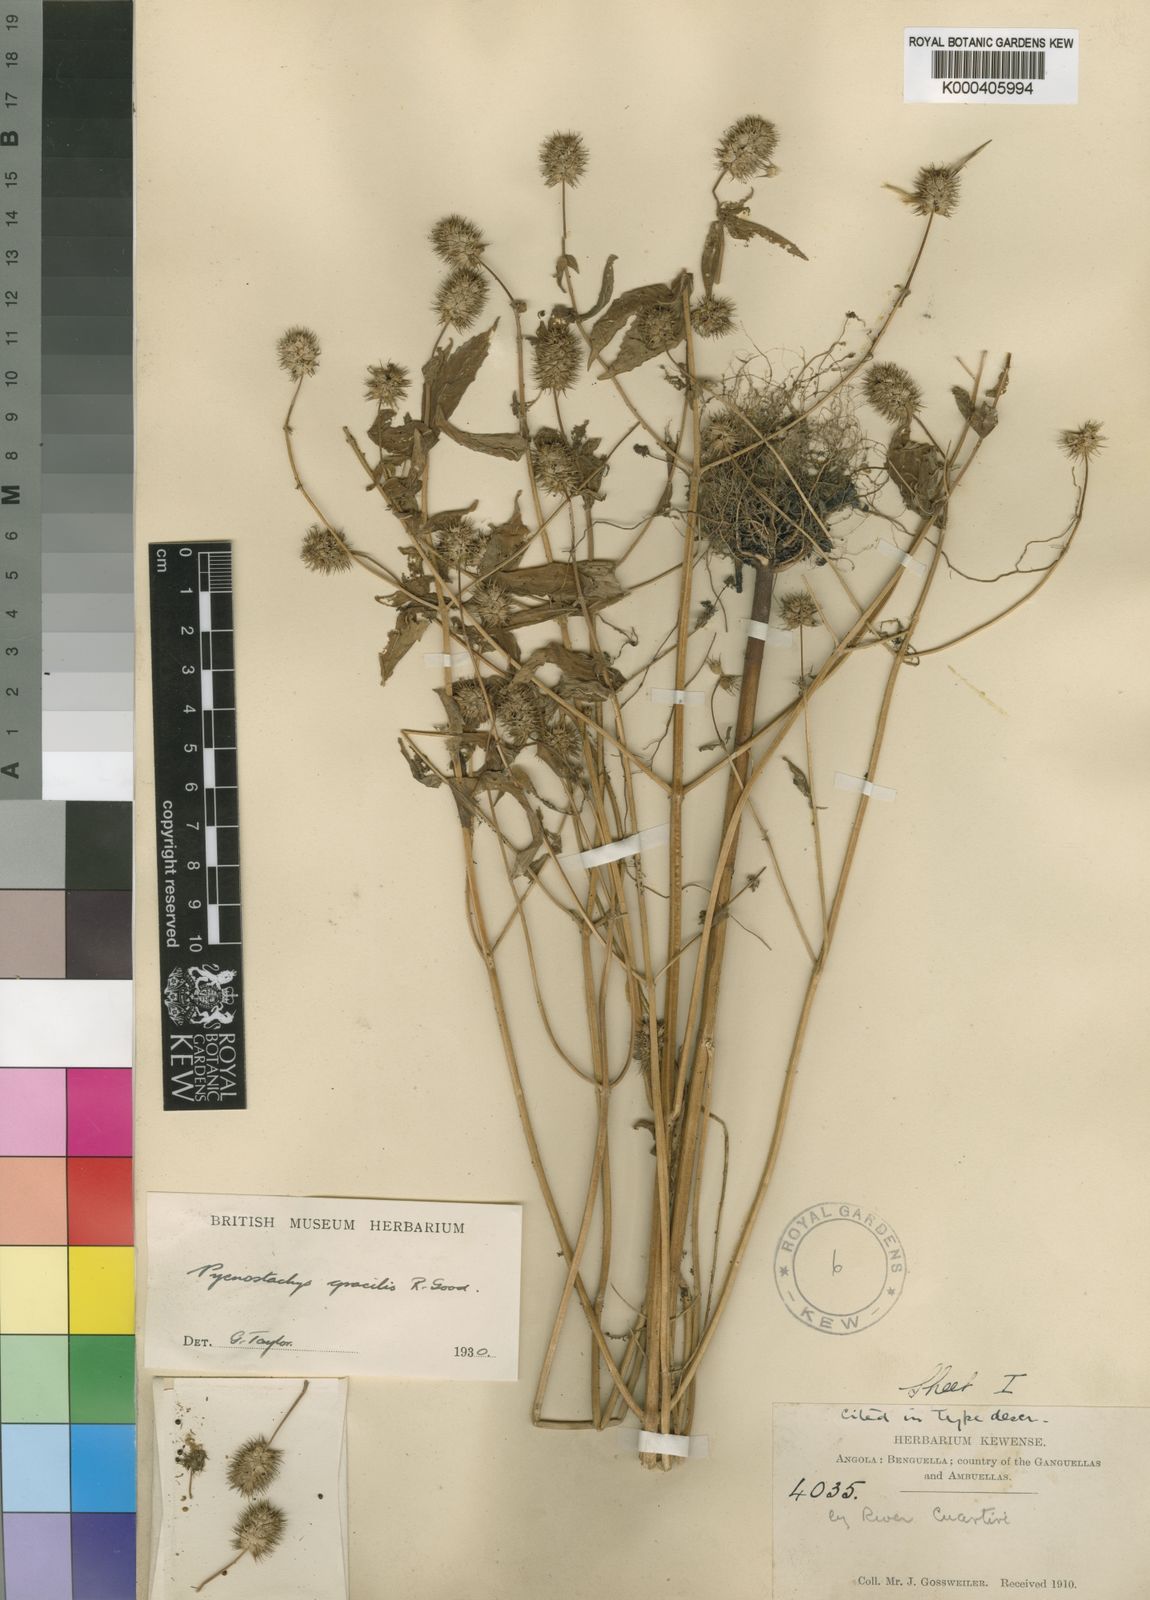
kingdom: Plantae
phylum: Tracheophyta
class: Magnoliopsida
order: Lamiales
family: Lamiaceae
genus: Coleus
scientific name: Coleus gossweileri
